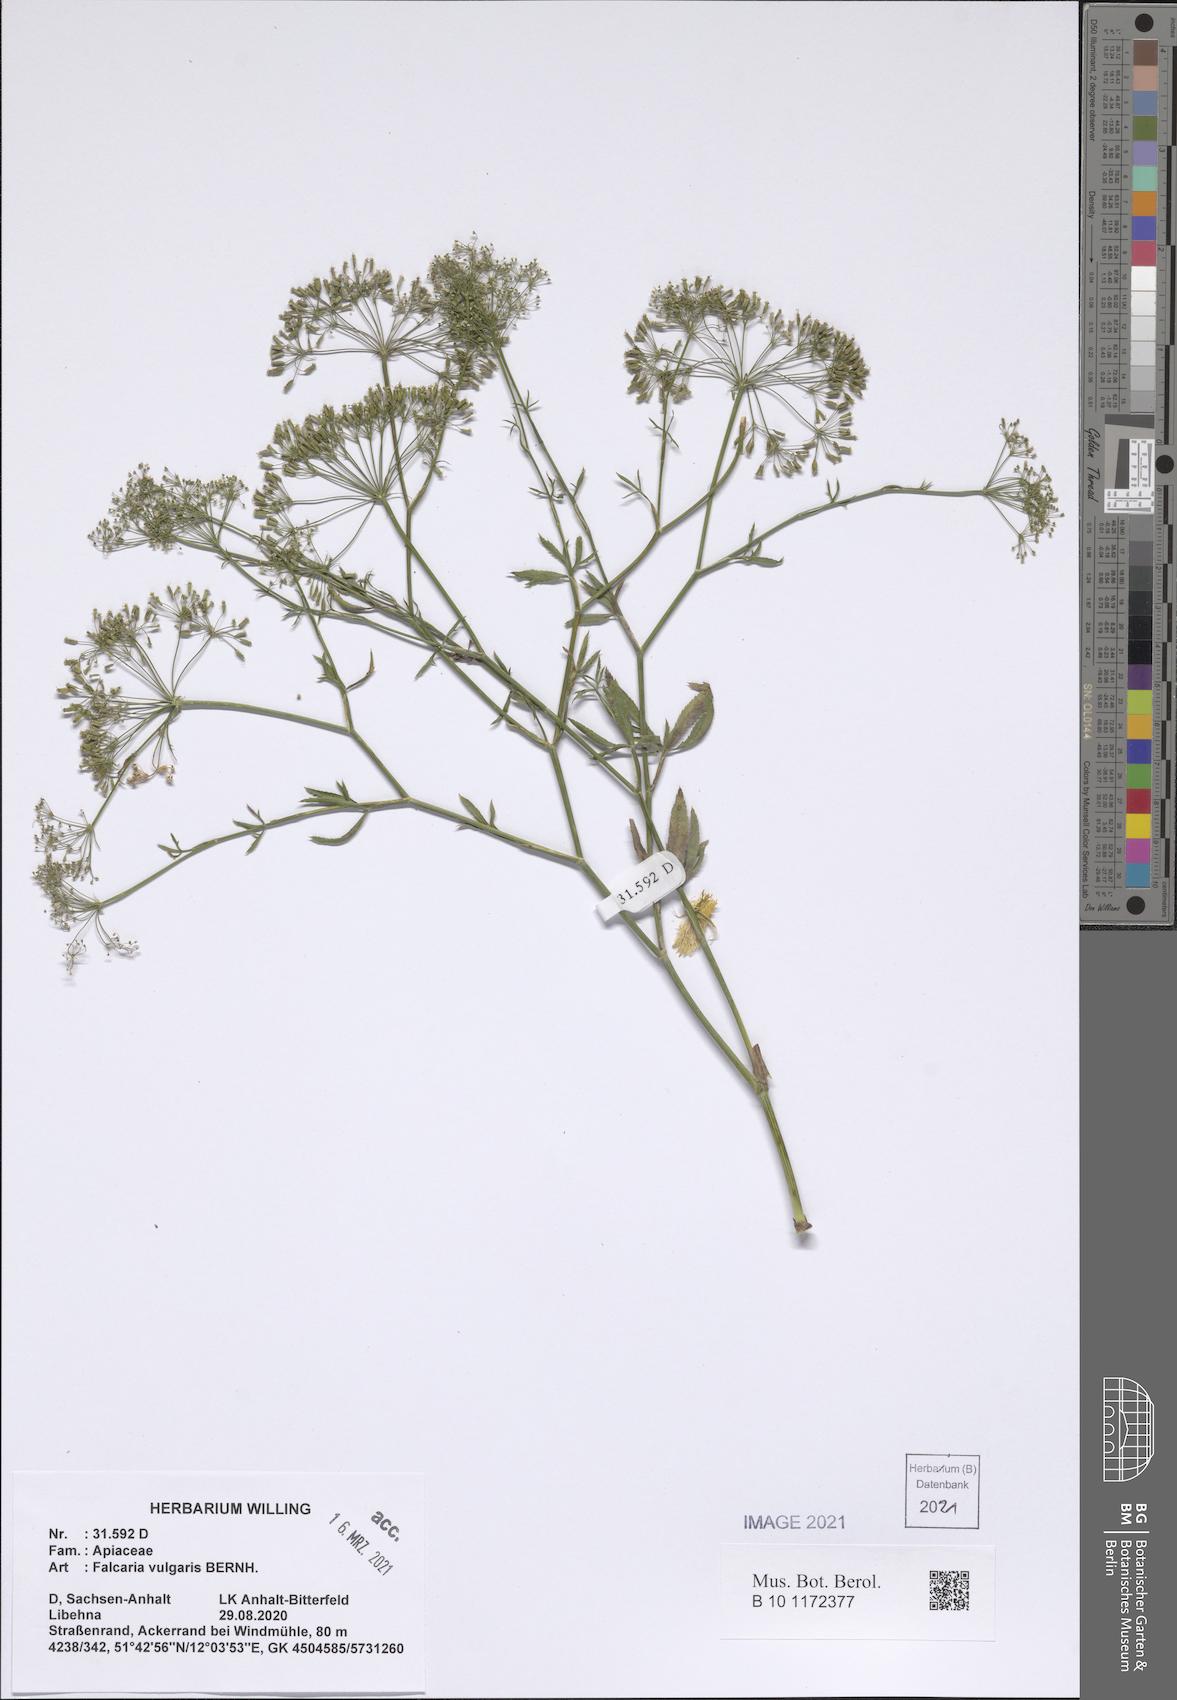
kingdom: Plantae
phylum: Tracheophyta
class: Magnoliopsida
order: Apiales
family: Apiaceae
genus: Falcaria
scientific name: Falcaria vulgaris
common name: Longleaf
